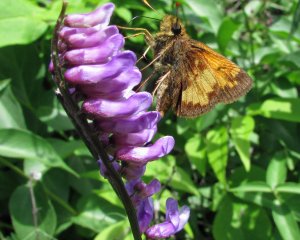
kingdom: Animalia
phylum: Arthropoda
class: Insecta
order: Lepidoptera
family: Hesperiidae
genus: Lon
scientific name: Lon hobomok
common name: Hobomok Skipper
